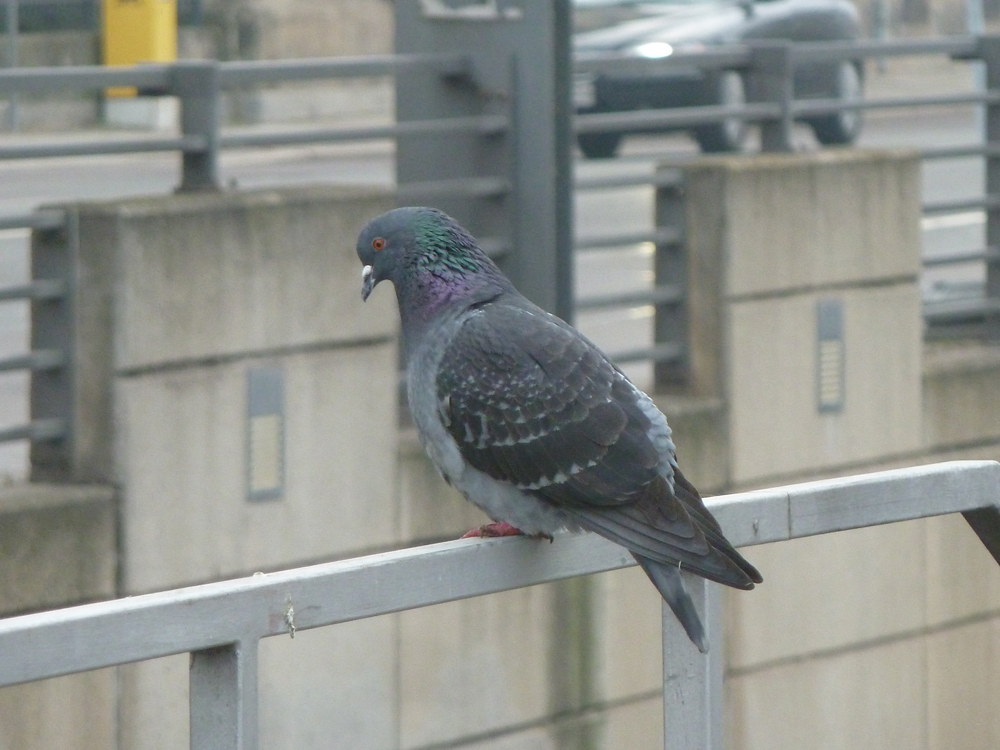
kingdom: Animalia
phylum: Chordata
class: Aves
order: Columbiformes
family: Columbidae
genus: Columba
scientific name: Columba livia
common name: Rock pigeon
